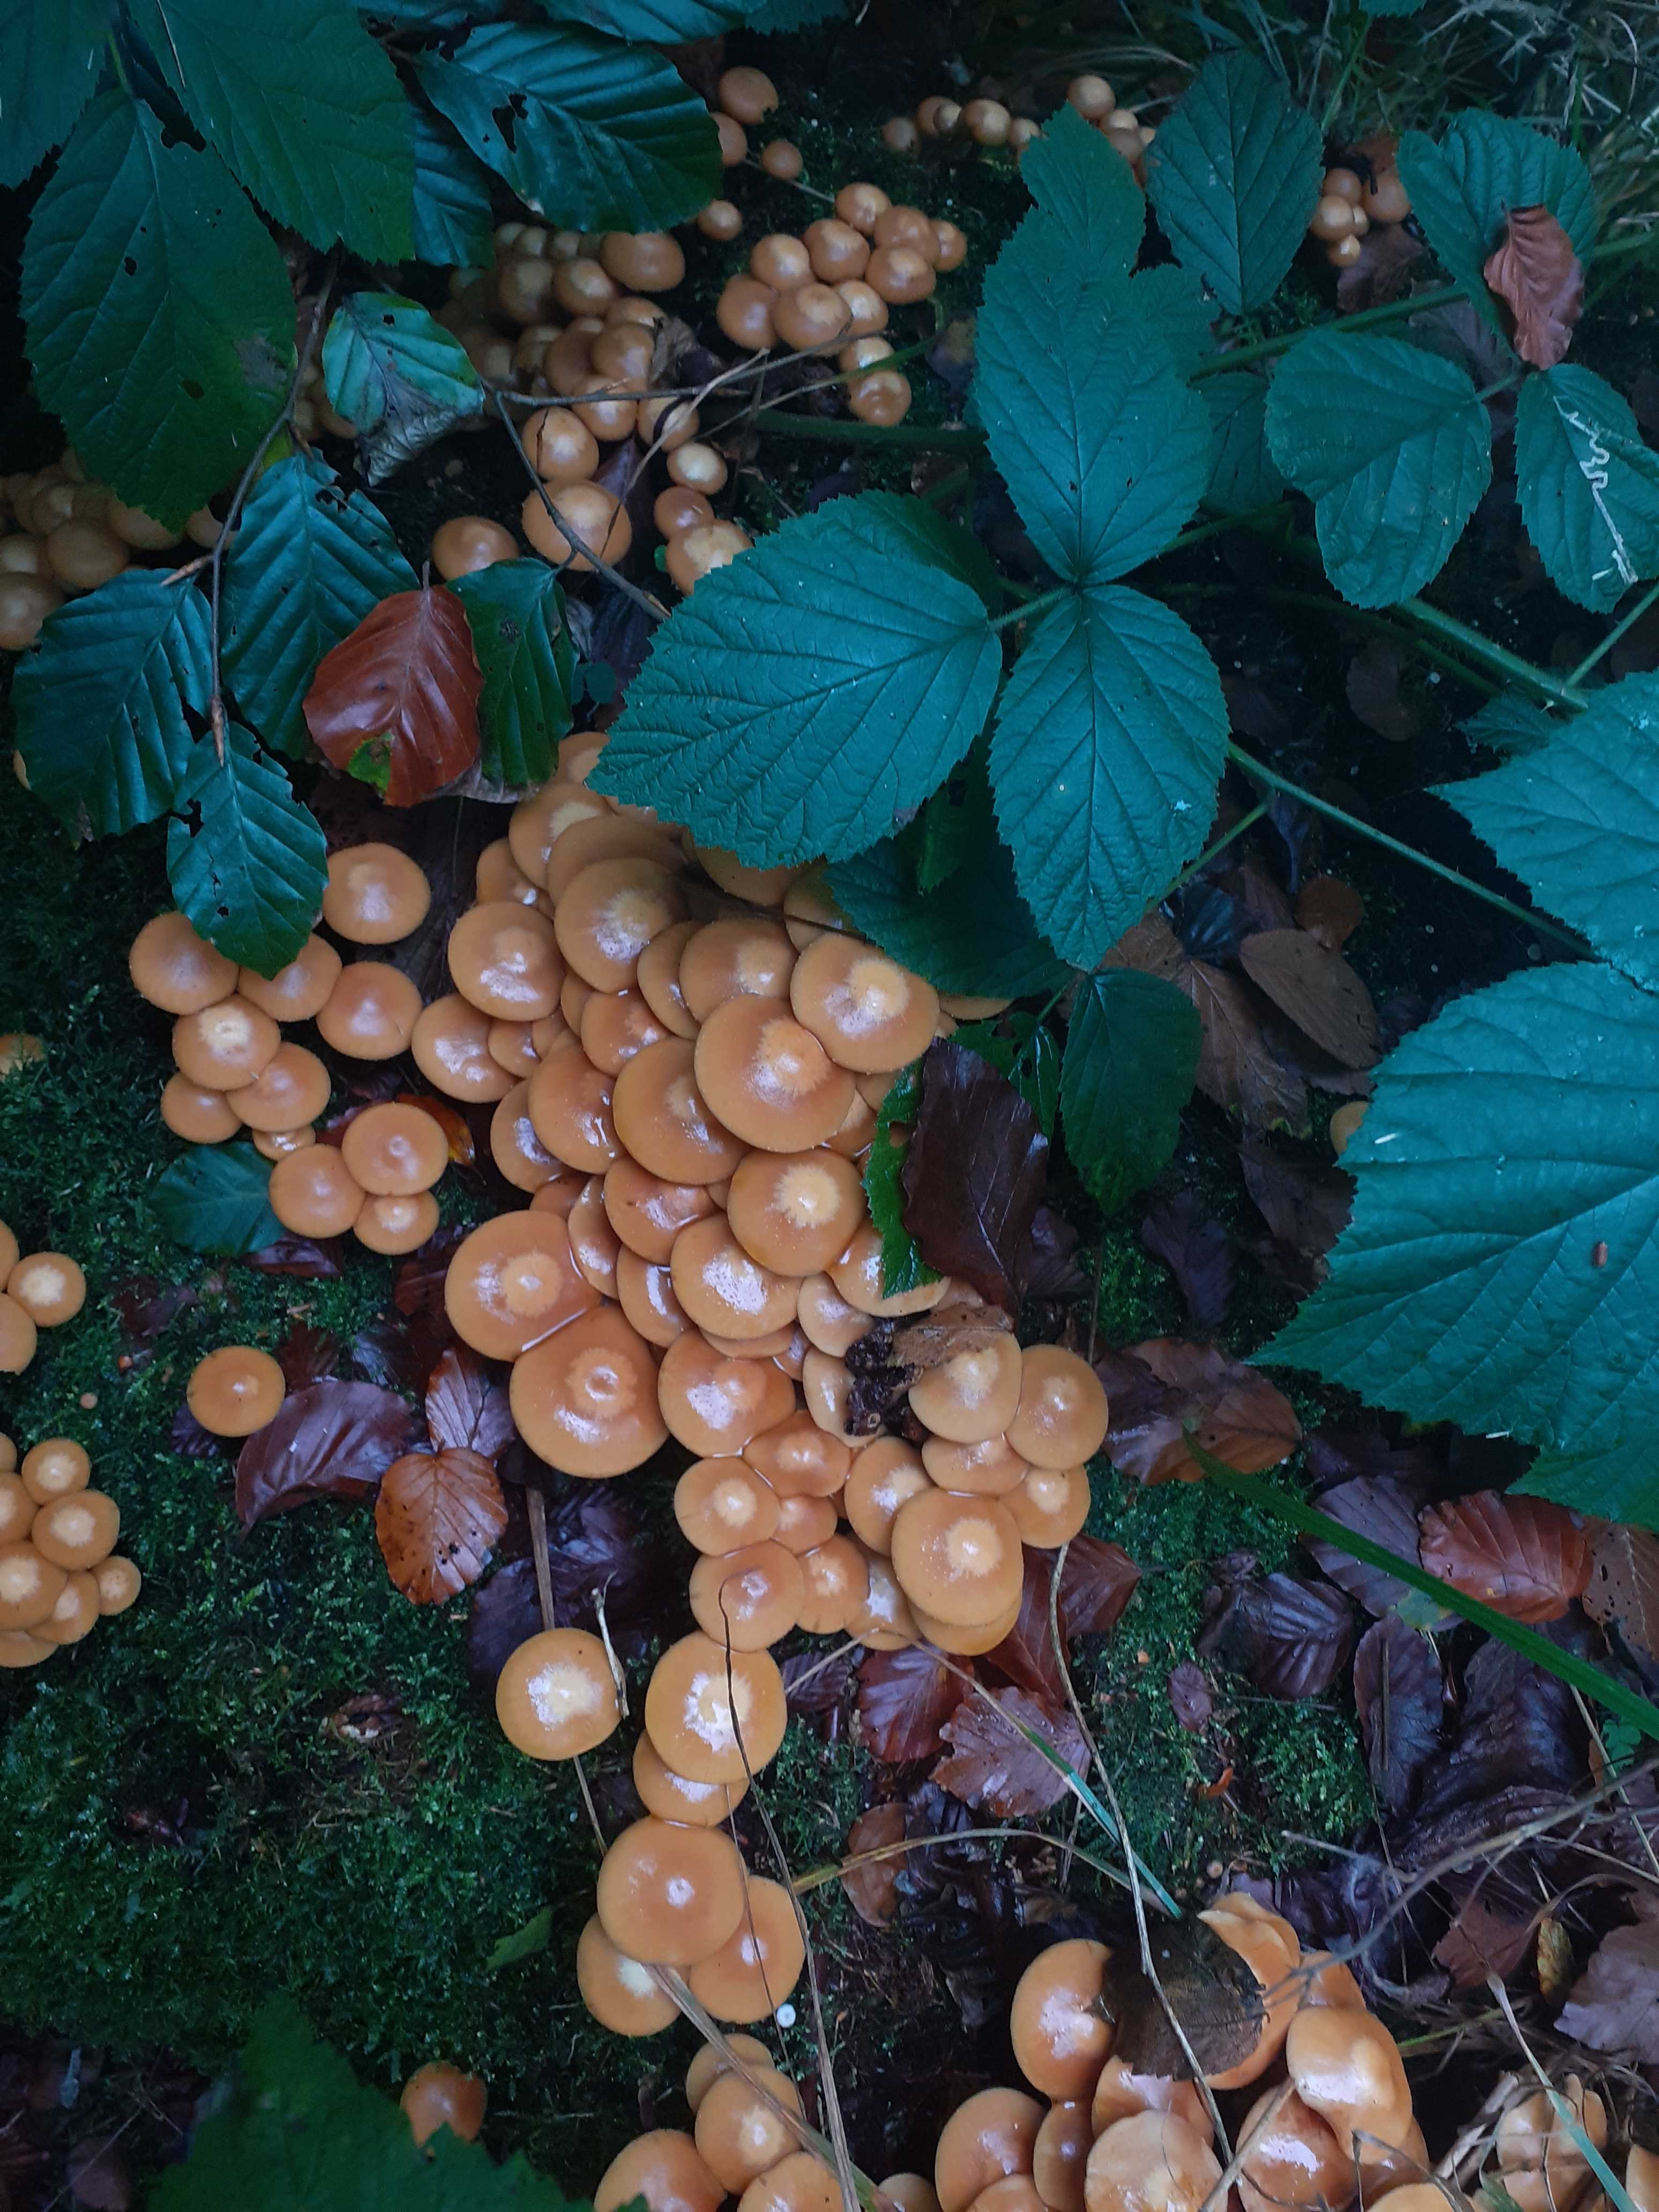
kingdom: Fungi
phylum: Basidiomycota
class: Agaricomycetes
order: Agaricales
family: Strophariaceae
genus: Kuehneromyces
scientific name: Kuehneromyces mutabilis
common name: foranderlig skælhat
